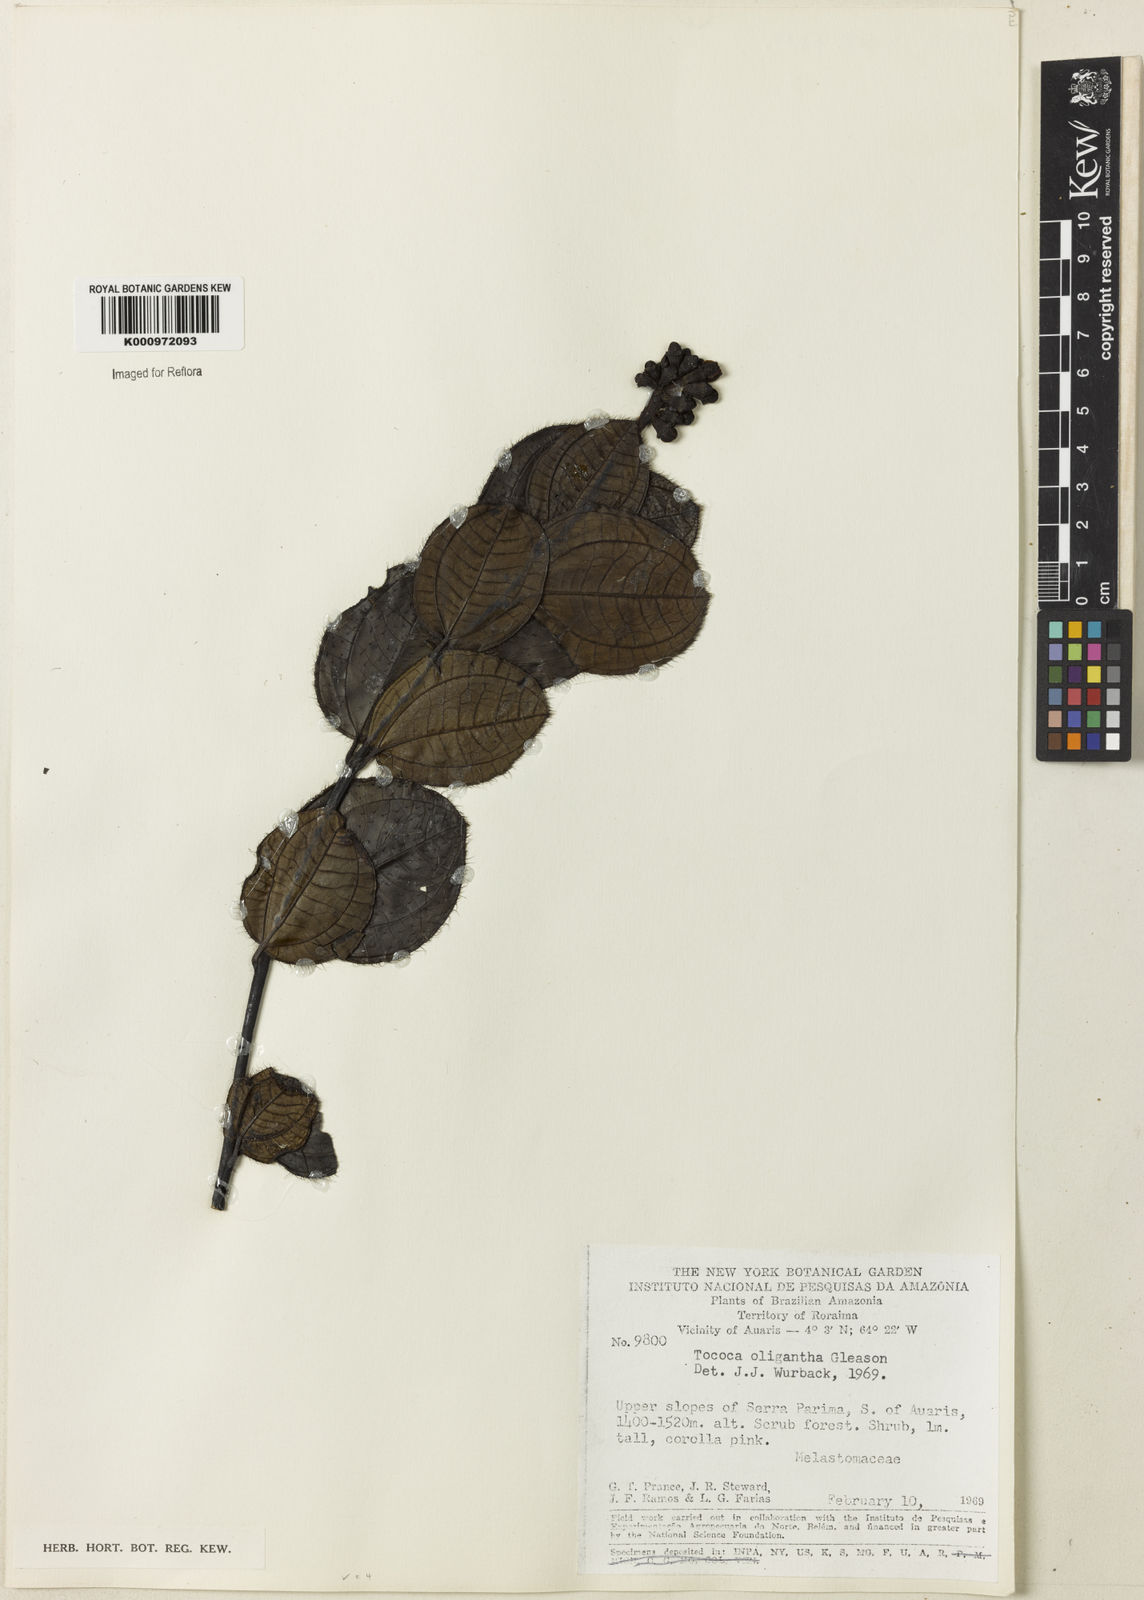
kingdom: Plantae
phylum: Tracheophyta
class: Magnoliopsida
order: Myrtales
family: Melastomataceae
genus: Miconia
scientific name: Miconia setimarginata
